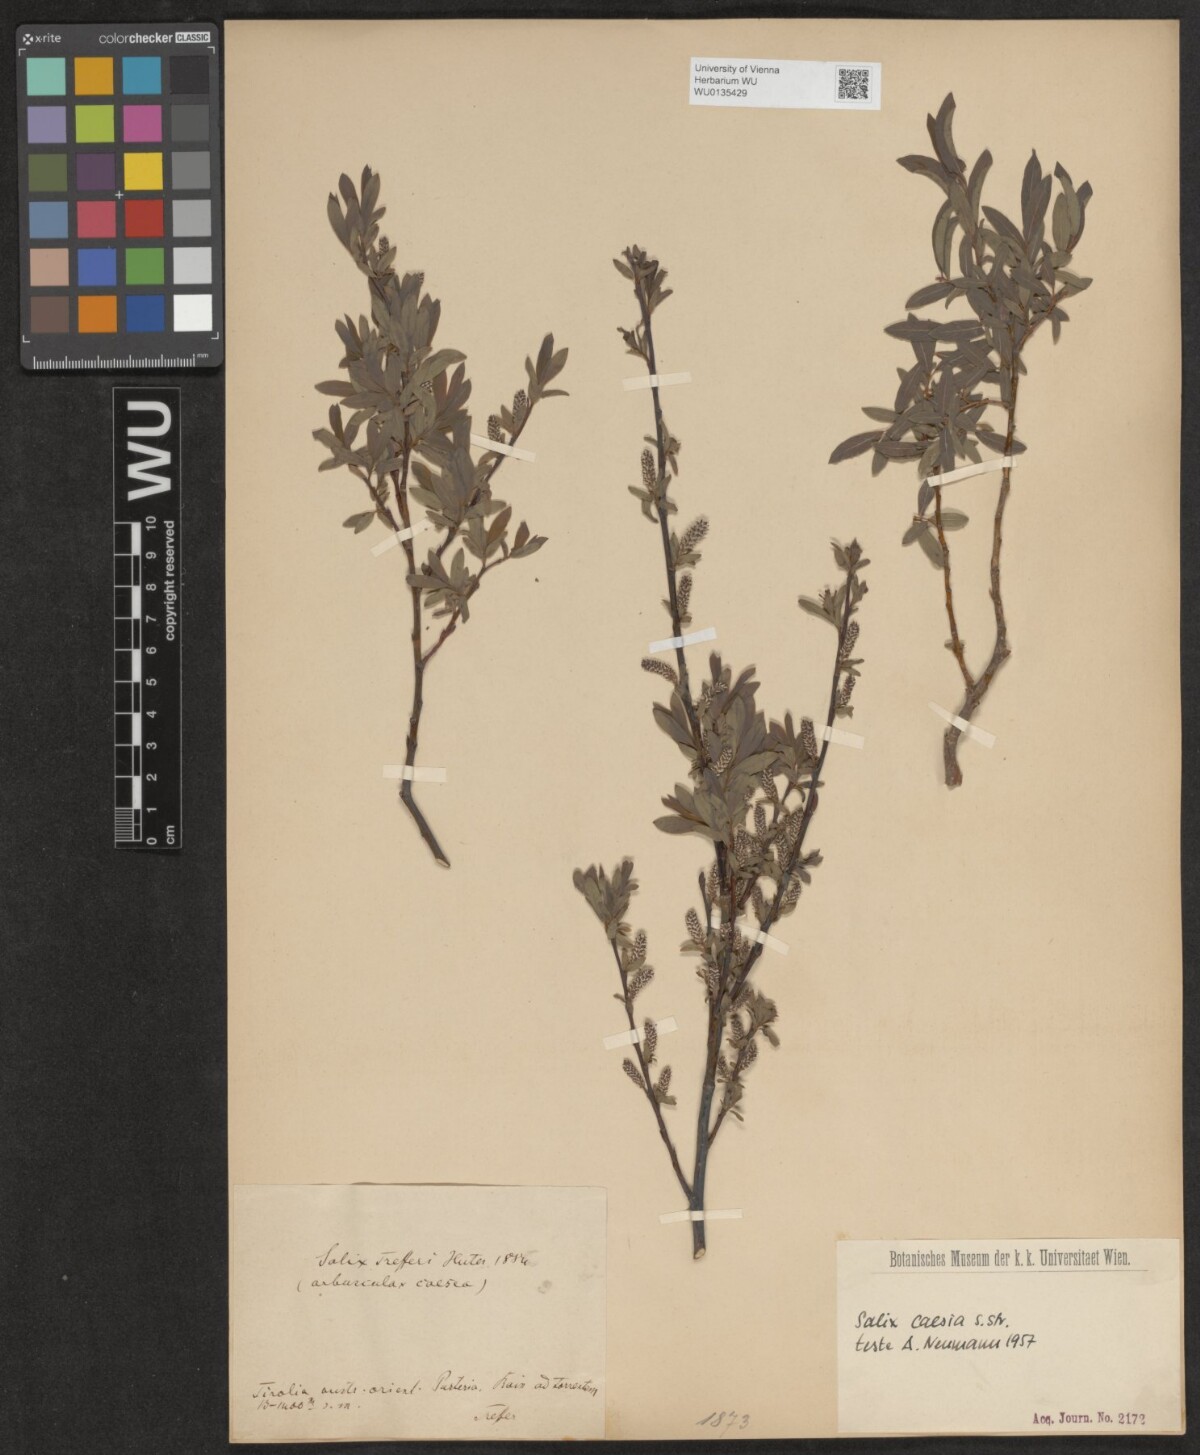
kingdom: Plantae
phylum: Tracheophyta
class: Magnoliopsida
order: Malpighiales
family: Salicaceae
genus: Salix
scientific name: Salix caesia
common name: Blue willow
